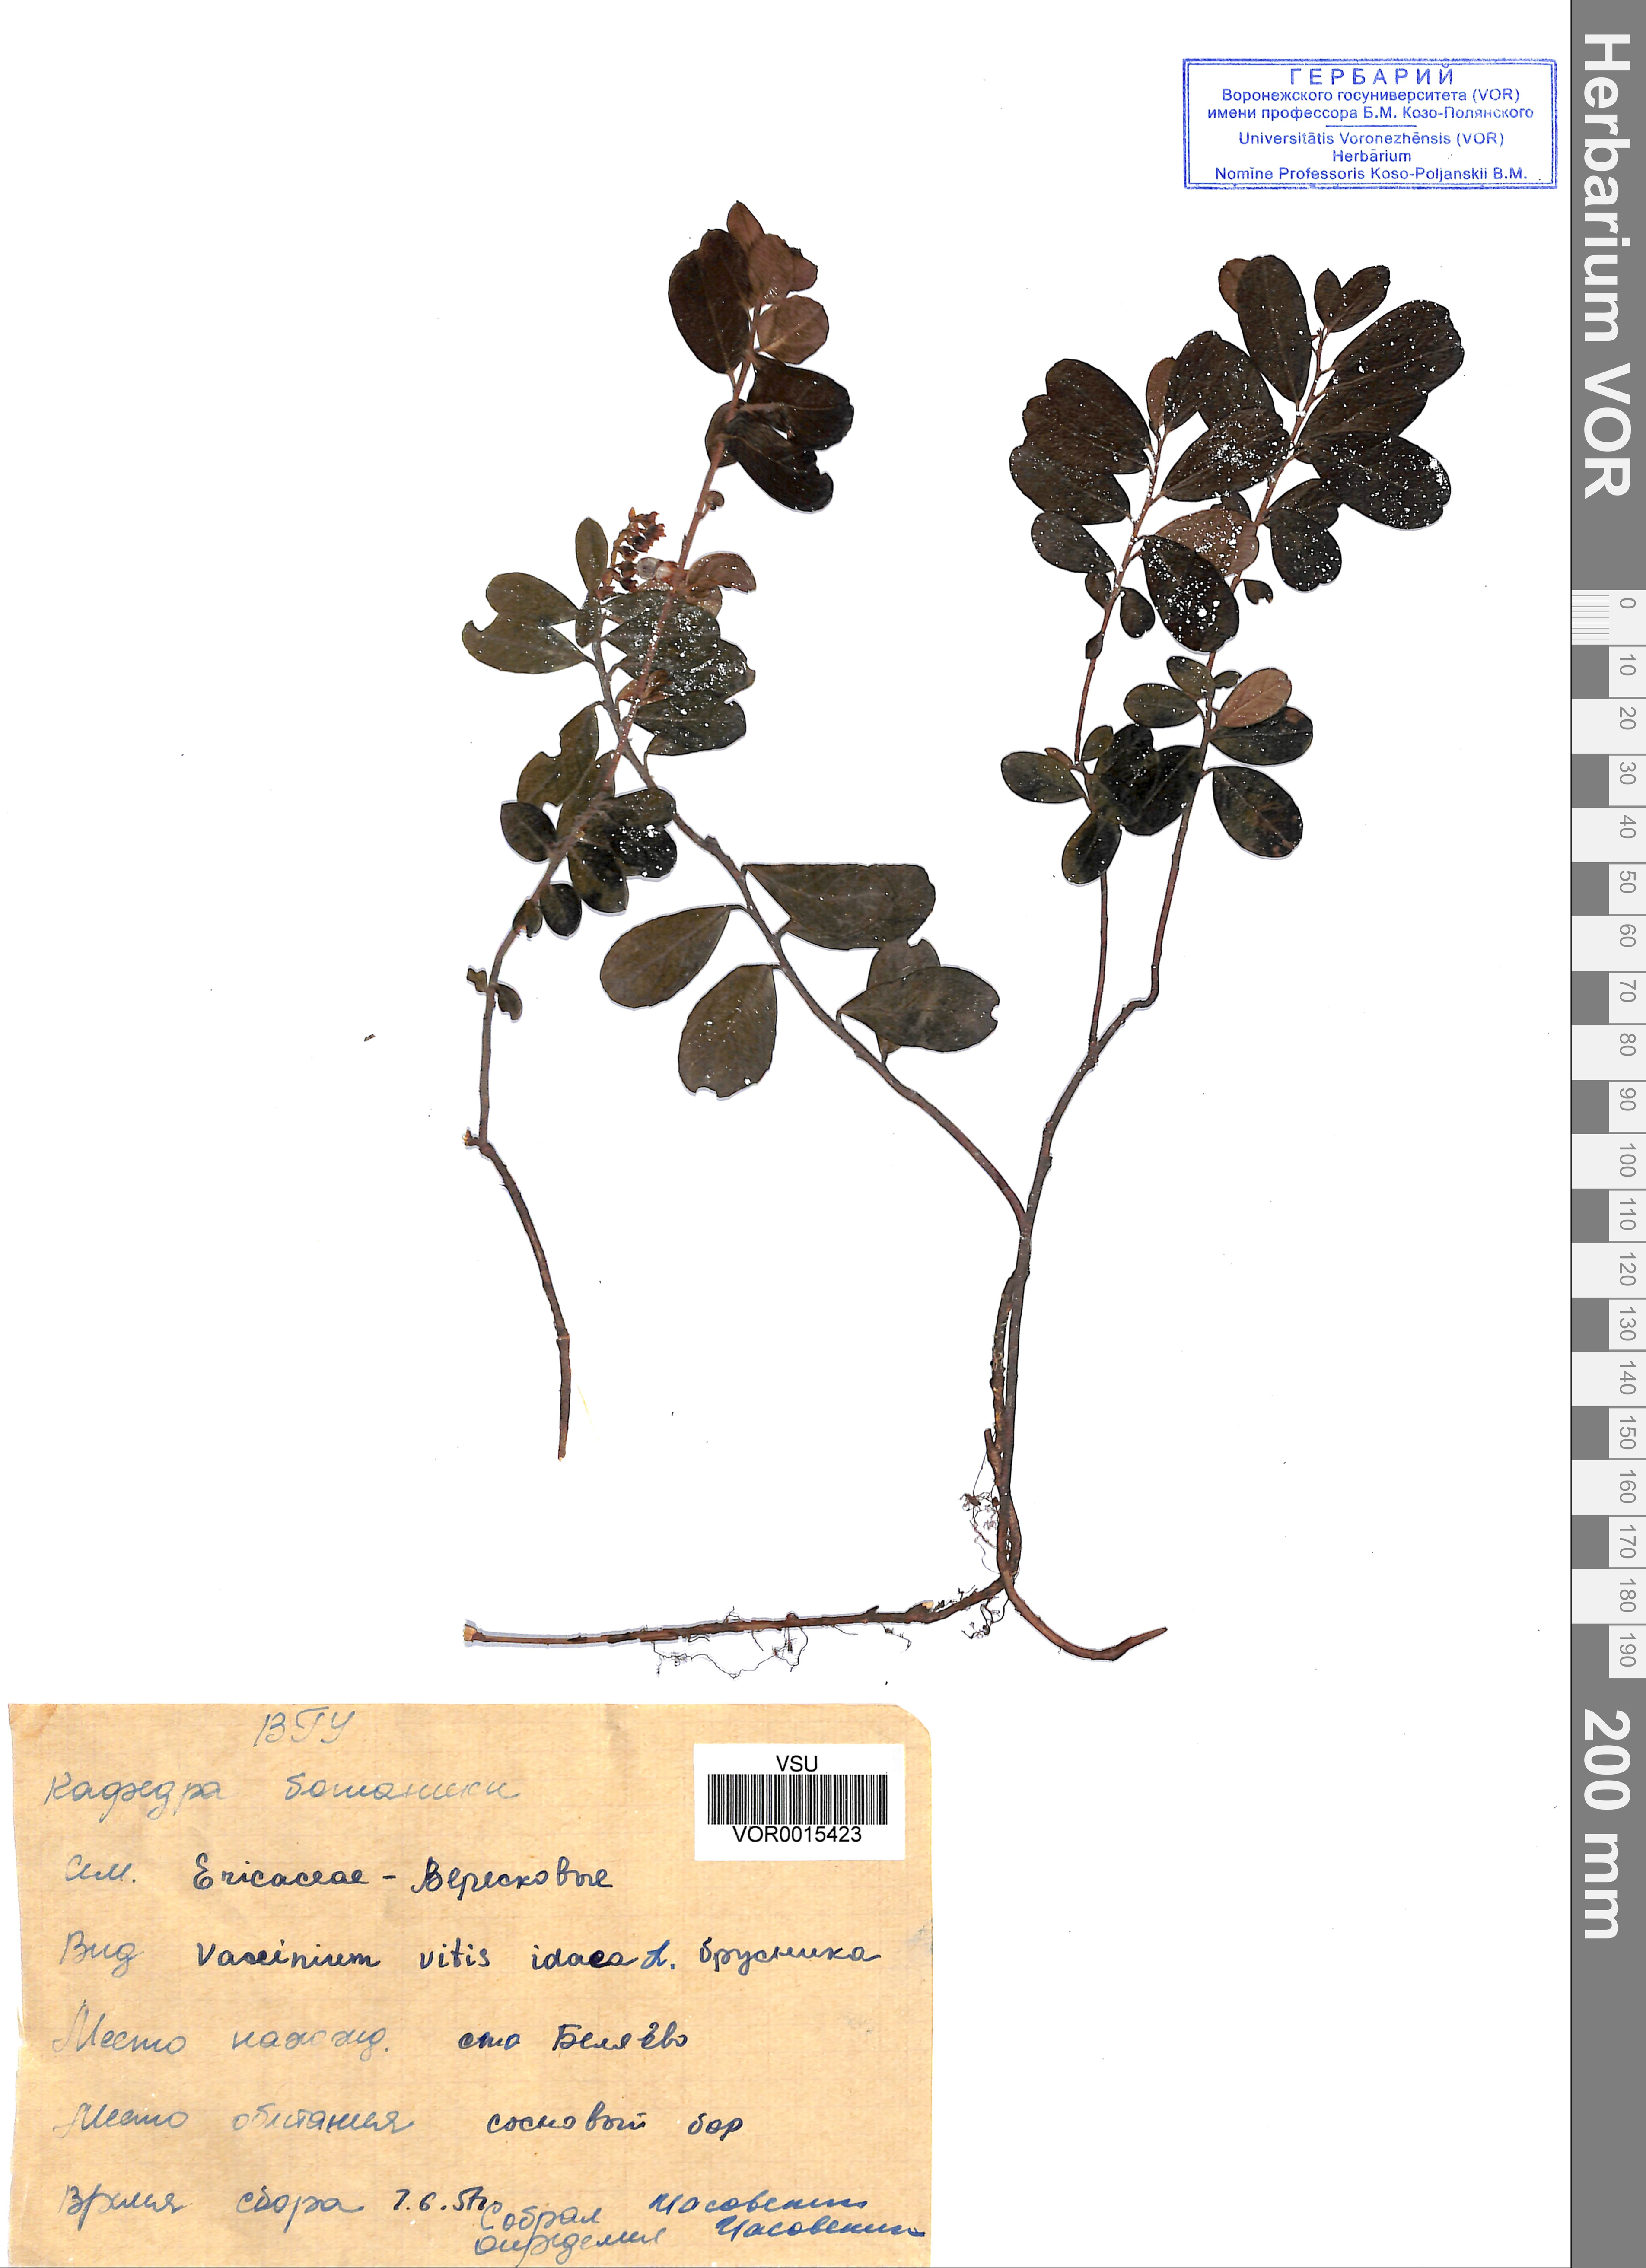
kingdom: Plantae
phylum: Tracheophyta
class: Magnoliopsida
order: Ericales
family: Ericaceae
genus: Vaccinium
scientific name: Vaccinium vitis-idaea
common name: Cowberry
